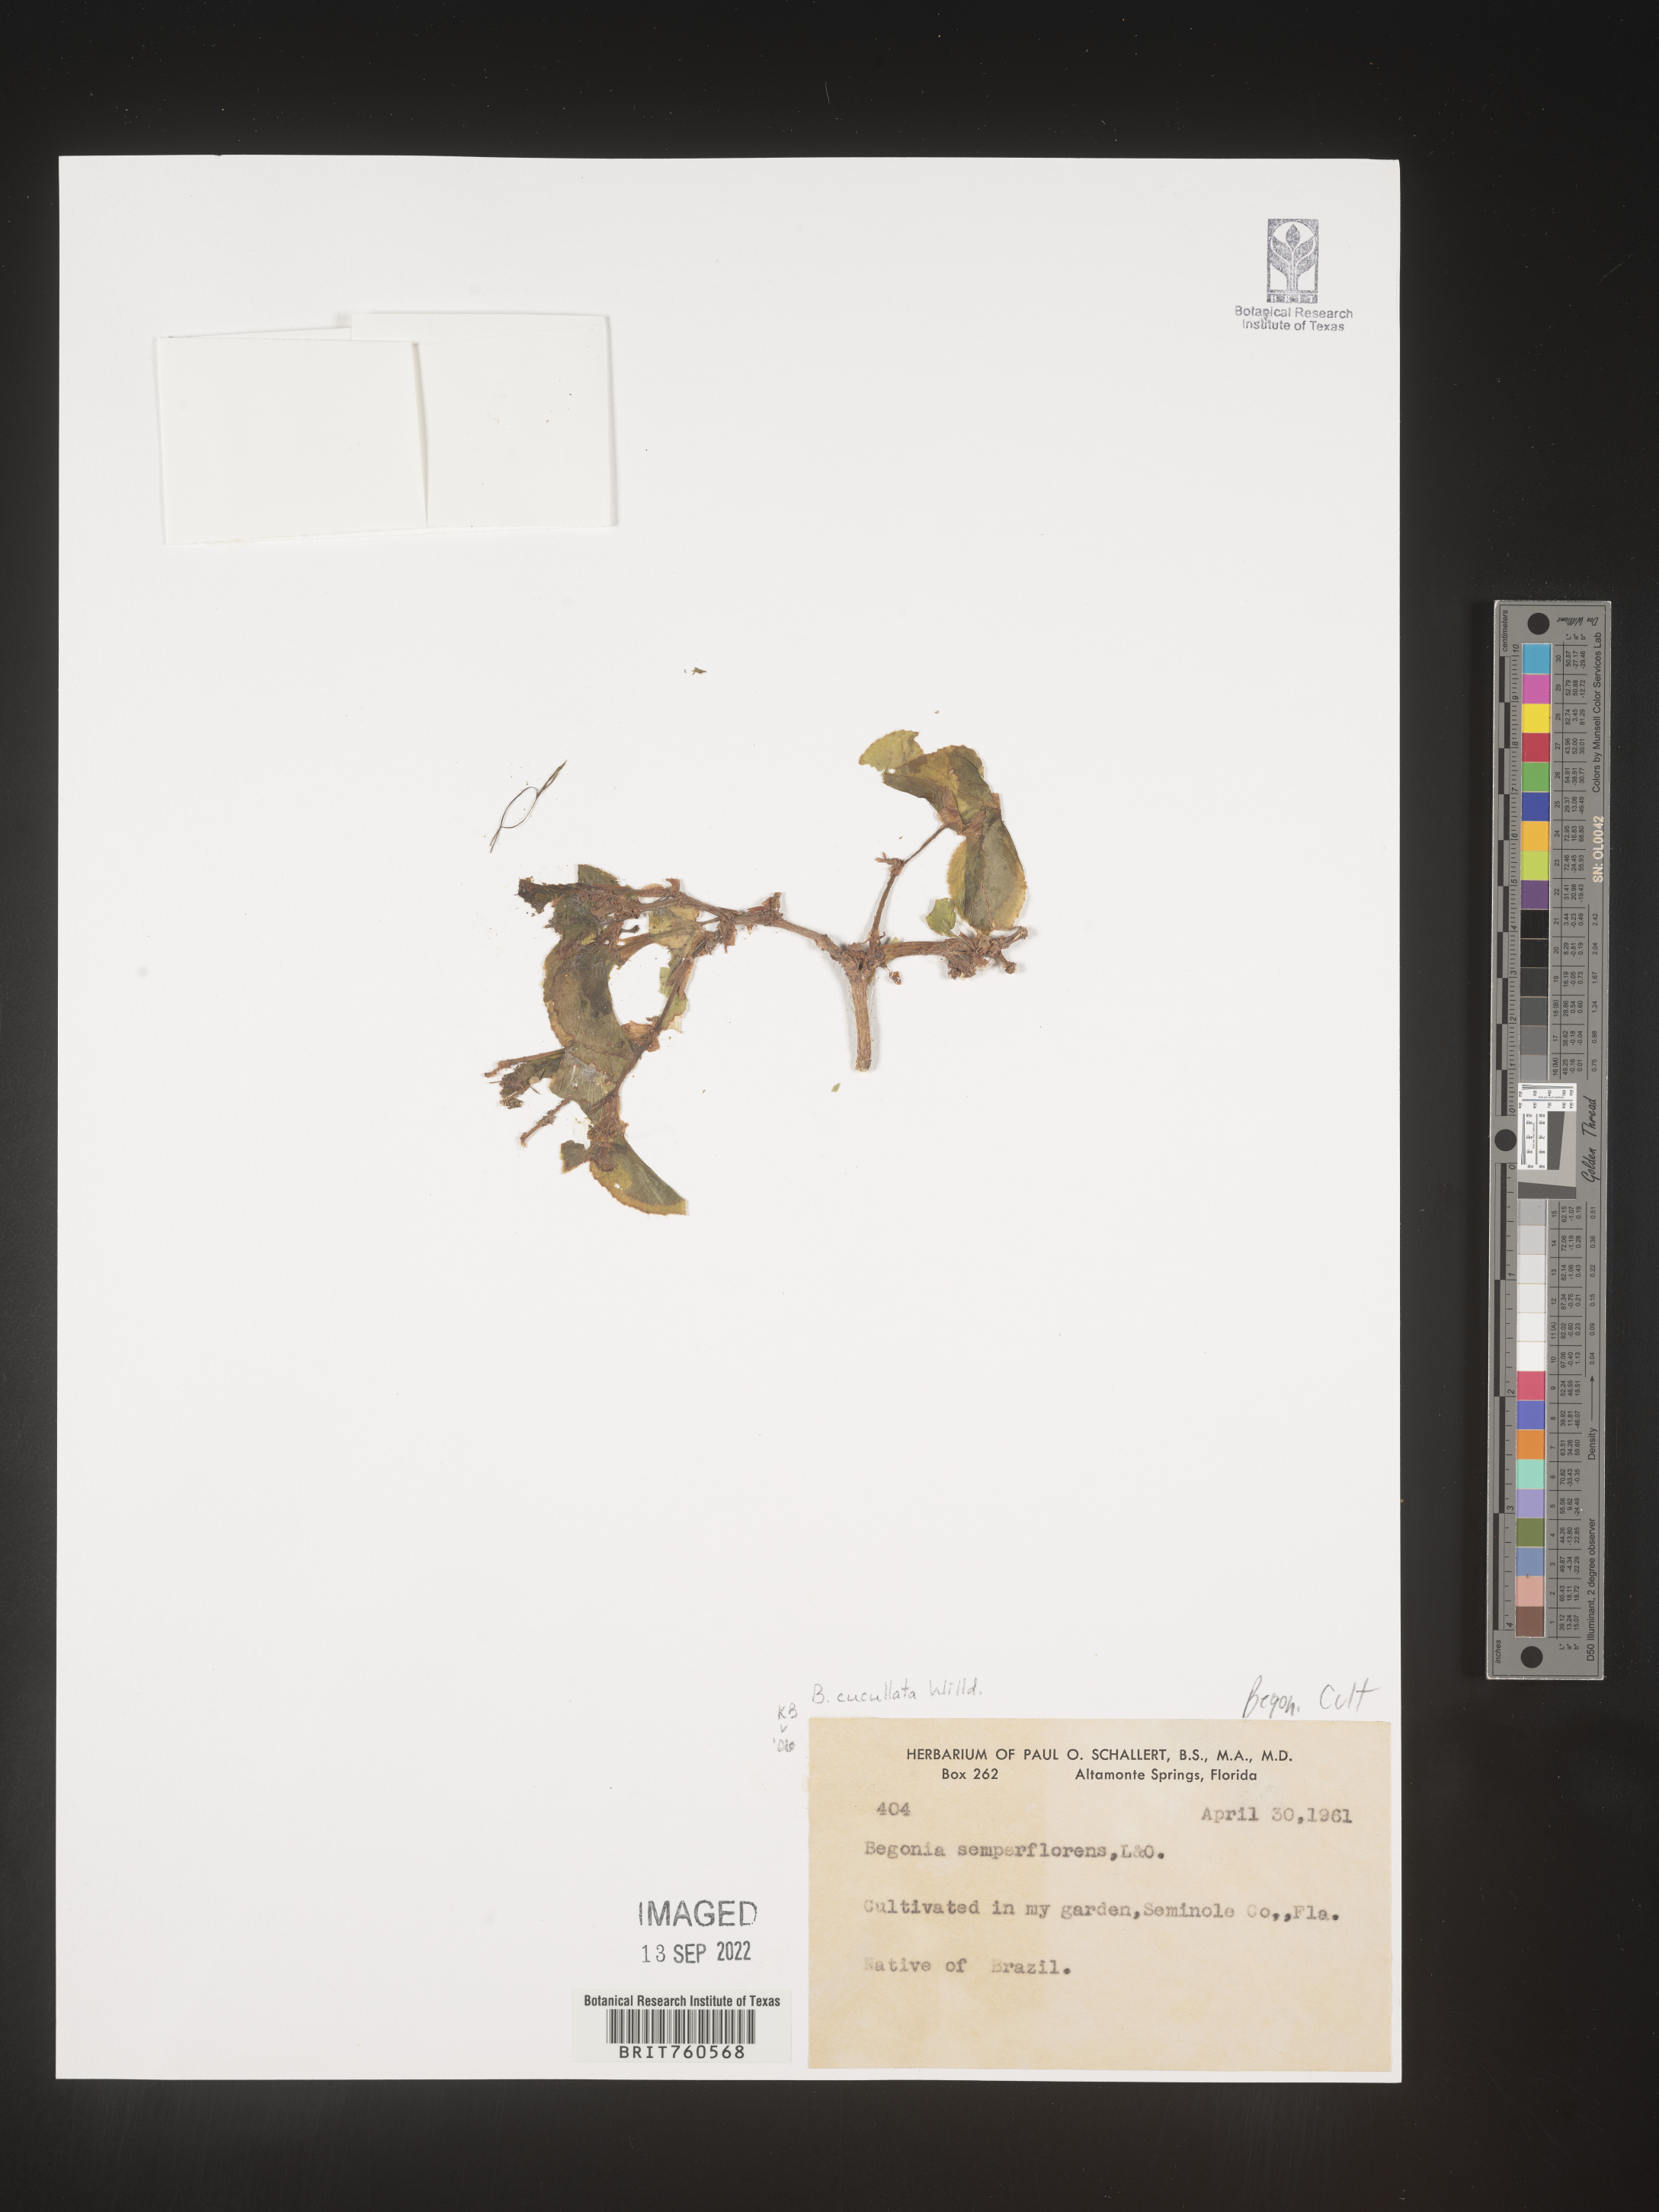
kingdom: Plantae
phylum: Tracheophyta
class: Magnoliopsida
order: Cucurbitales
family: Begoniaceae
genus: Begonia
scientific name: Begonia cucullata
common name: Clubbed begonia
